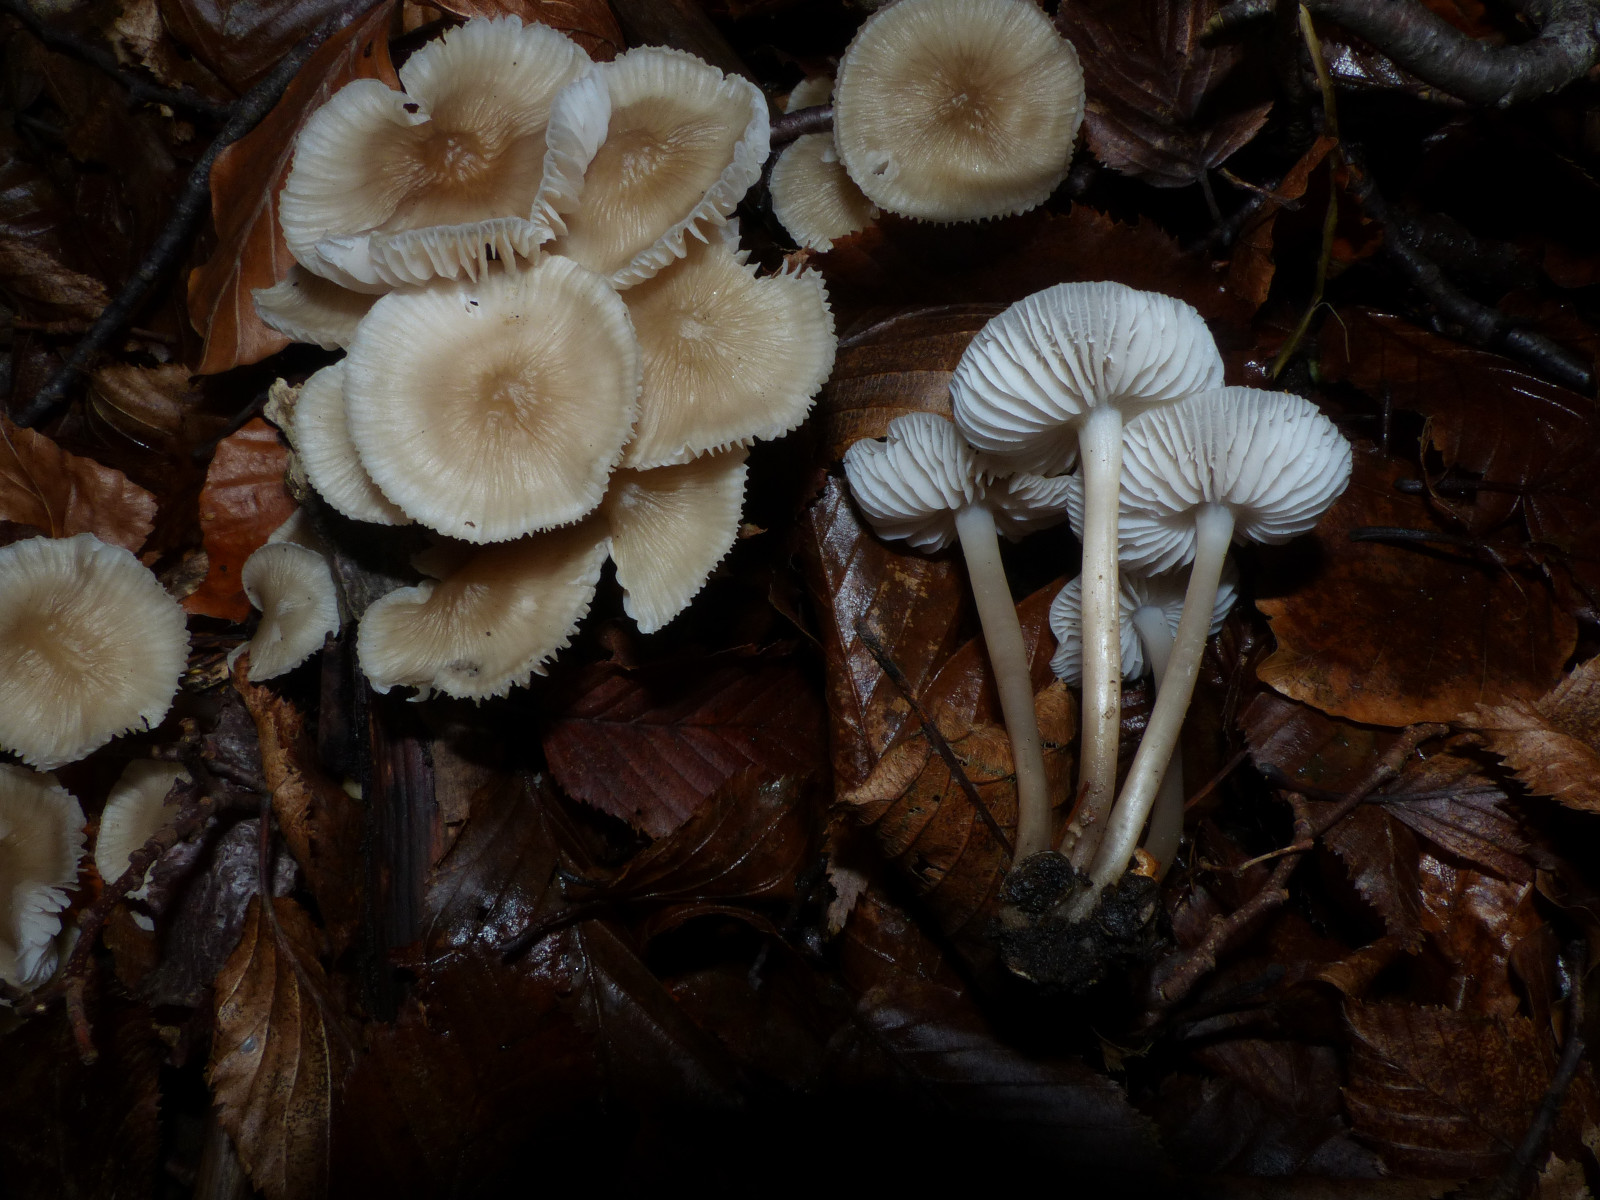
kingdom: Fungi
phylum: Basidiomycota
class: Agaricomycetes
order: Agaricales
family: Mycenaceae
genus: Mycena
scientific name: Mycena galericulata
